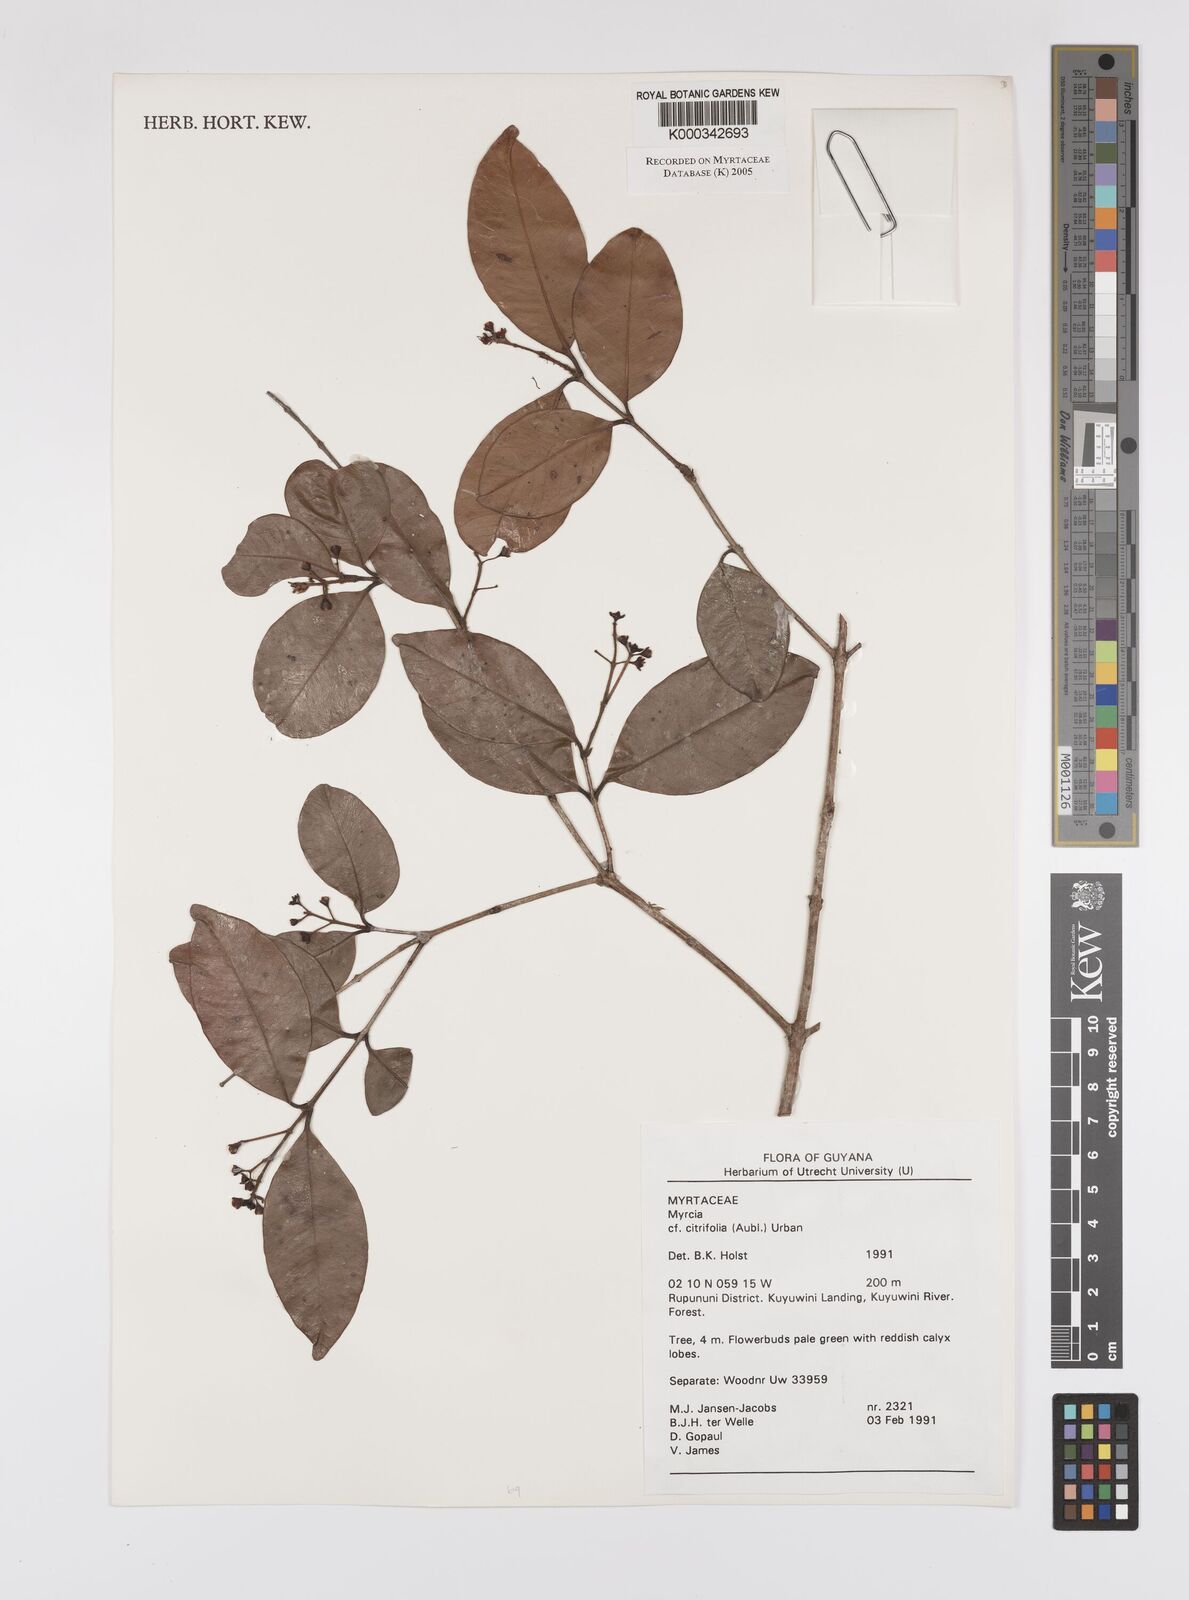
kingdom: Plantae
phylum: Tracheophyta
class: Magnoliopsida
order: Myrtales
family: Myrtaceae
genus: Myrcia
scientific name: Myrcia guianensis
